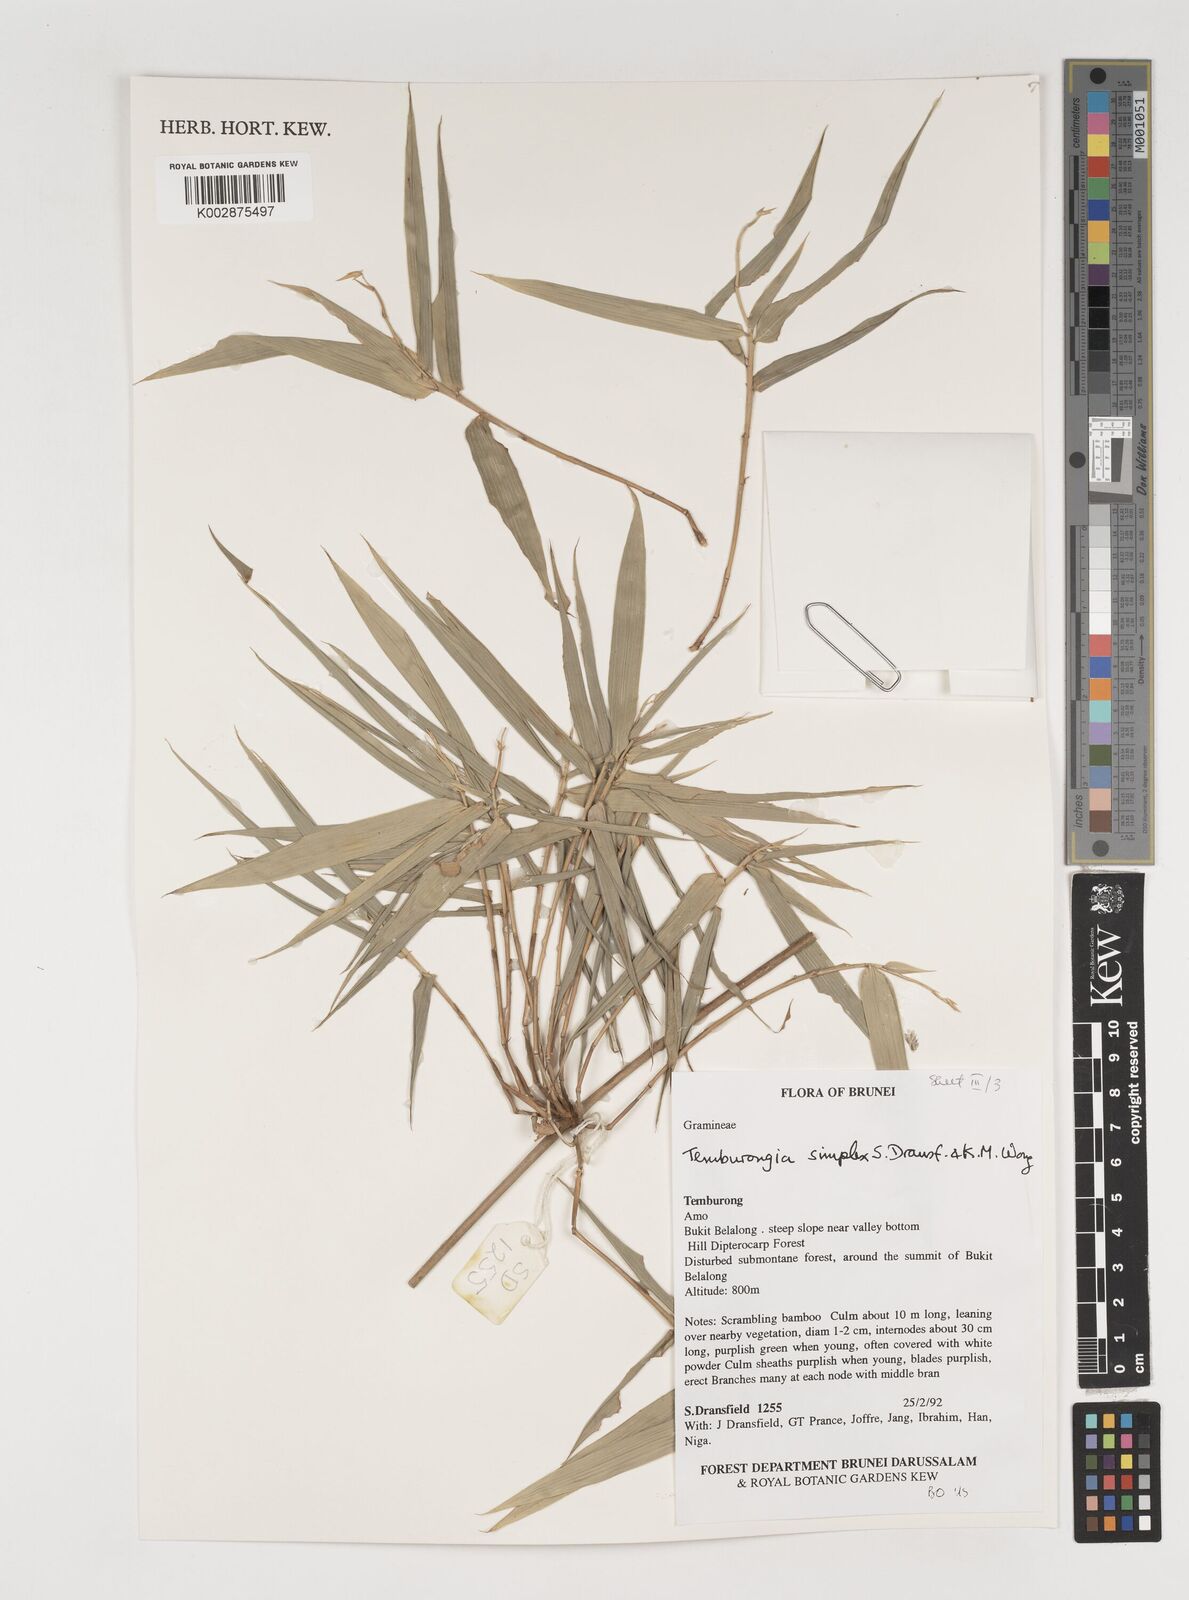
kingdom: Plantae
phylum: Tracheophyta
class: Liliopsida
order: Poales
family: Poaceae
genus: Temburongia
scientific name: Temburongia simplex
